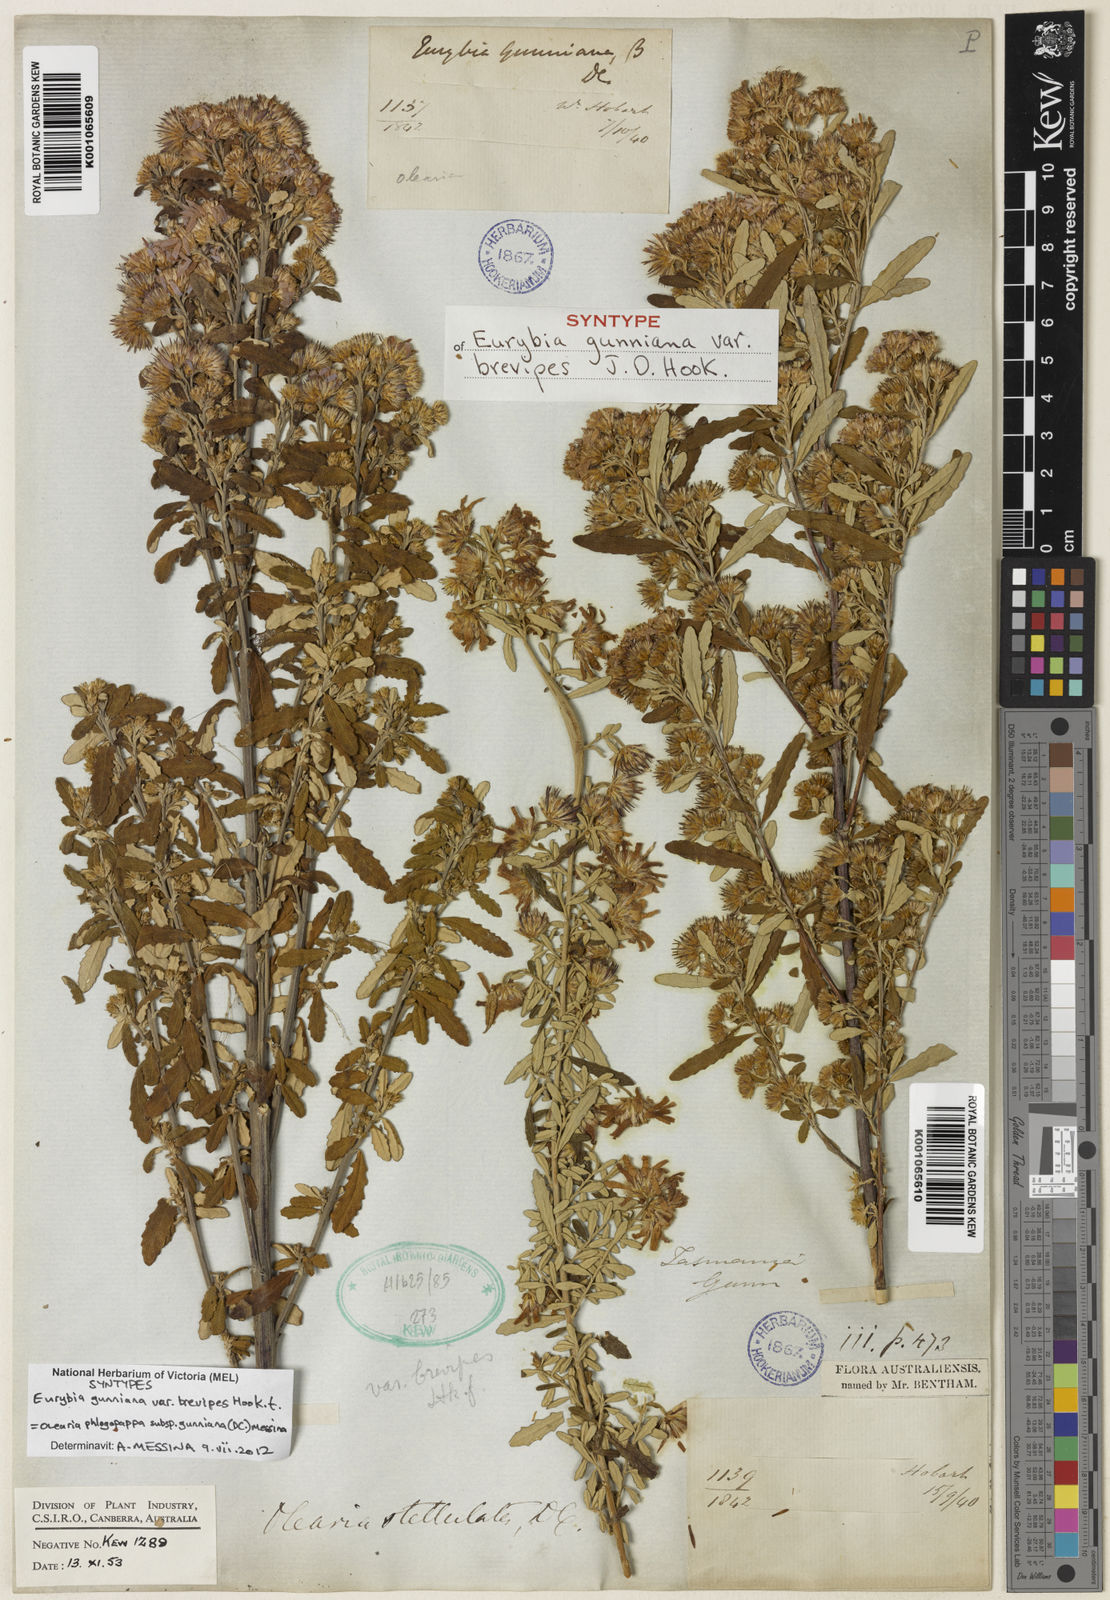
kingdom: Plantae
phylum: Tracheophyta
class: Magnoliopsida
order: Asterales
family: Asteraceae
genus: Olearia
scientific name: Olearia phlogopappa
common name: Alpine daisybush
